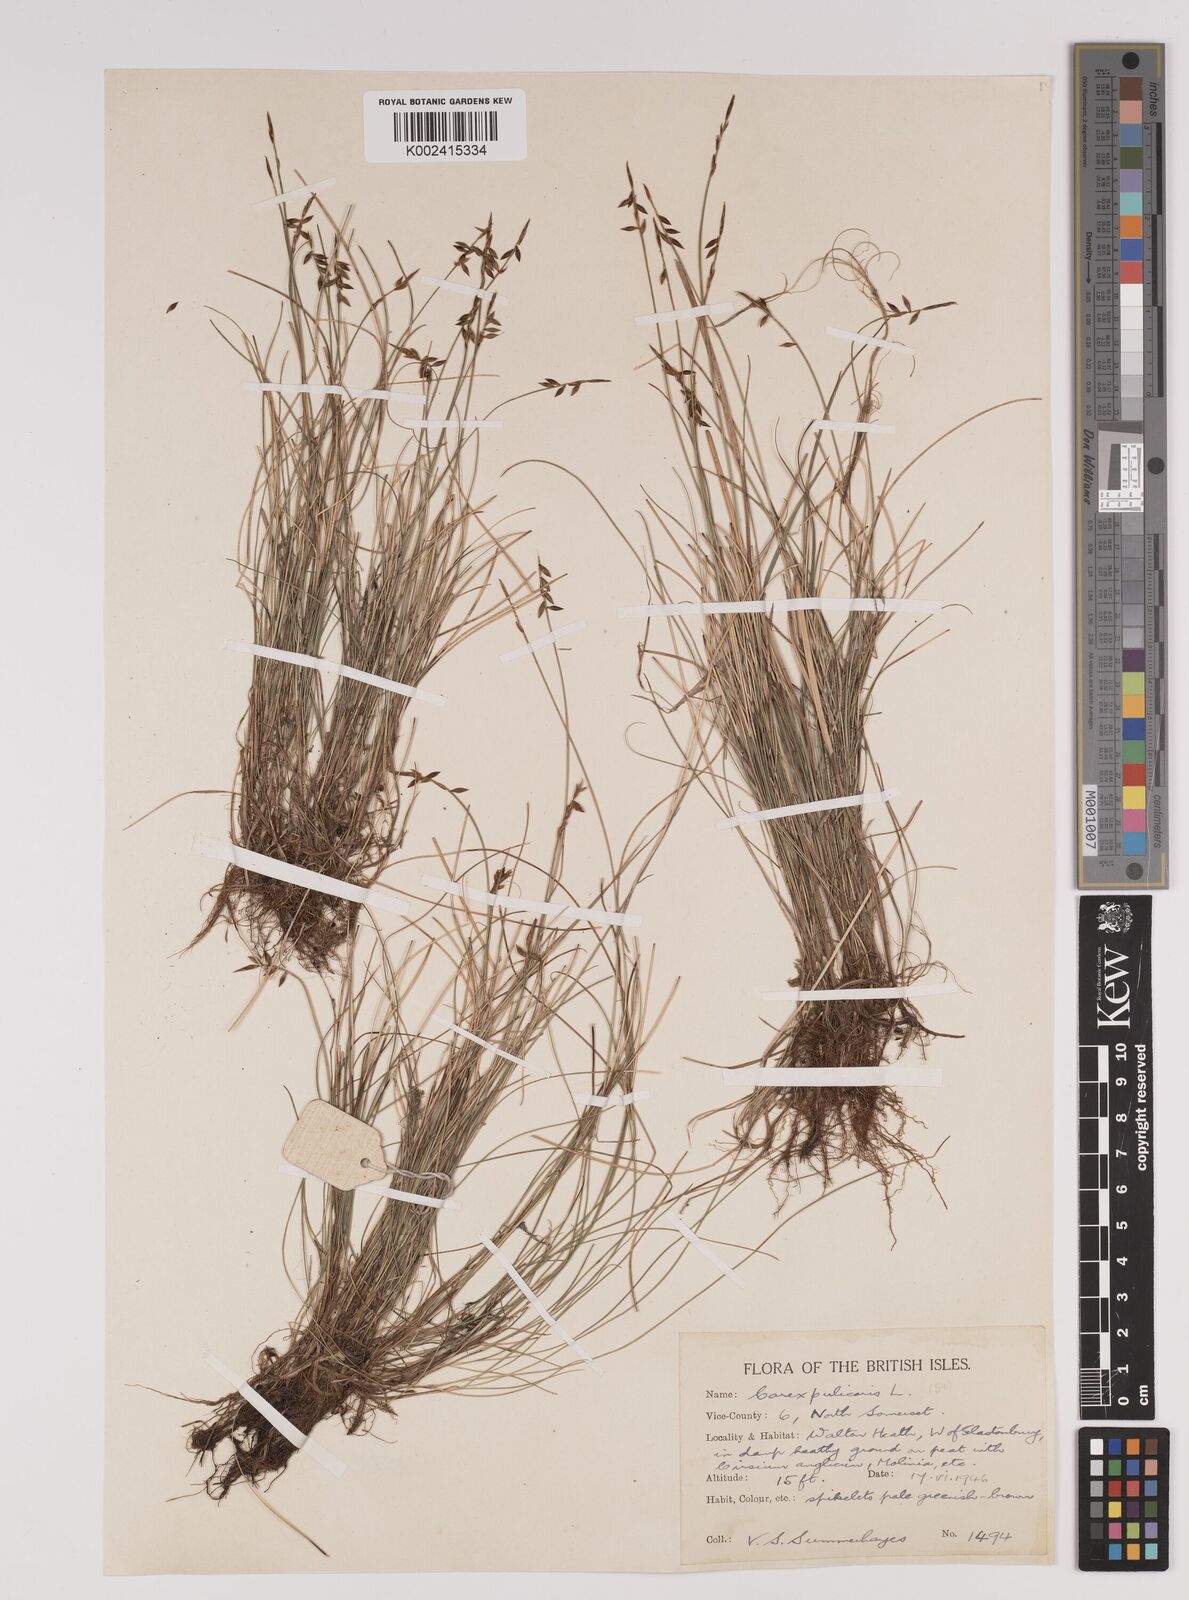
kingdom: Plantae
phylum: Tracheophyta
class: Liliopsida
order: Poales
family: Cyperaceae
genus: Carex
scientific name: Carex pulicaris
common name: Flea sedge
